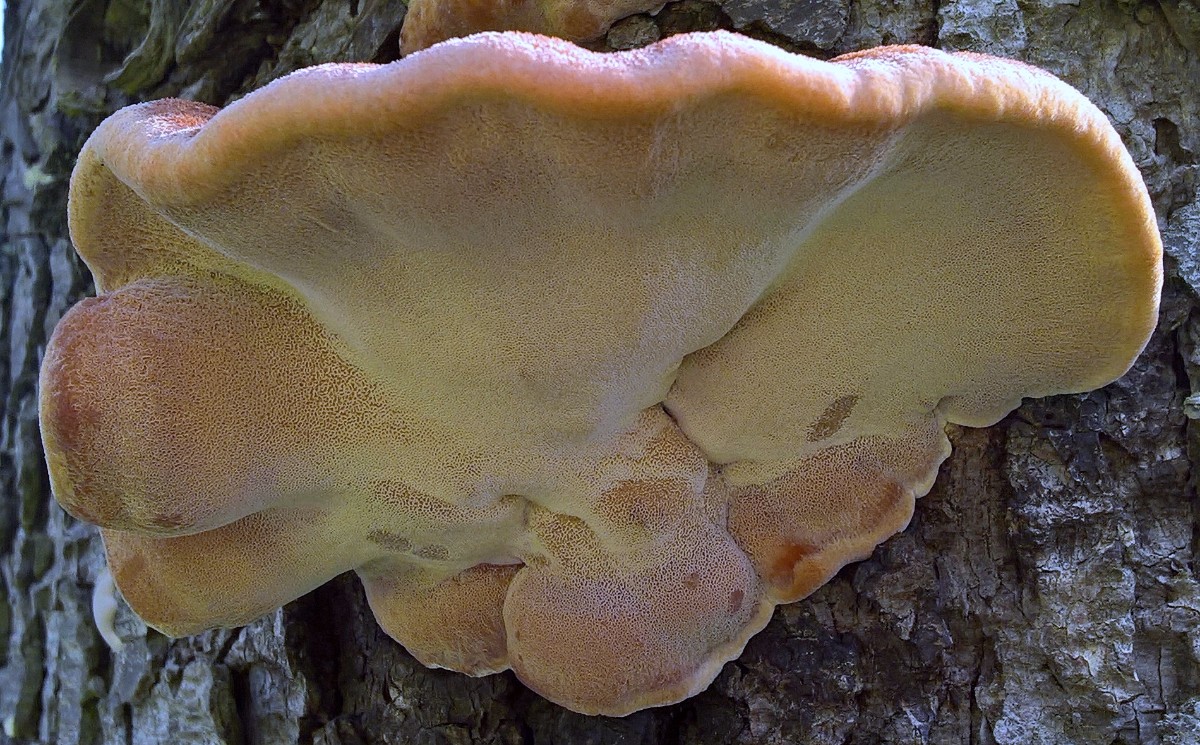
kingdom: Fungi
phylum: Basidiomycota
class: Agaricomycetes
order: Polyporales
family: Ischnodermataceae
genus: Ischnoderma
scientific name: Ischnoderma benzoinum
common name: gran-tjæreporesvamp
